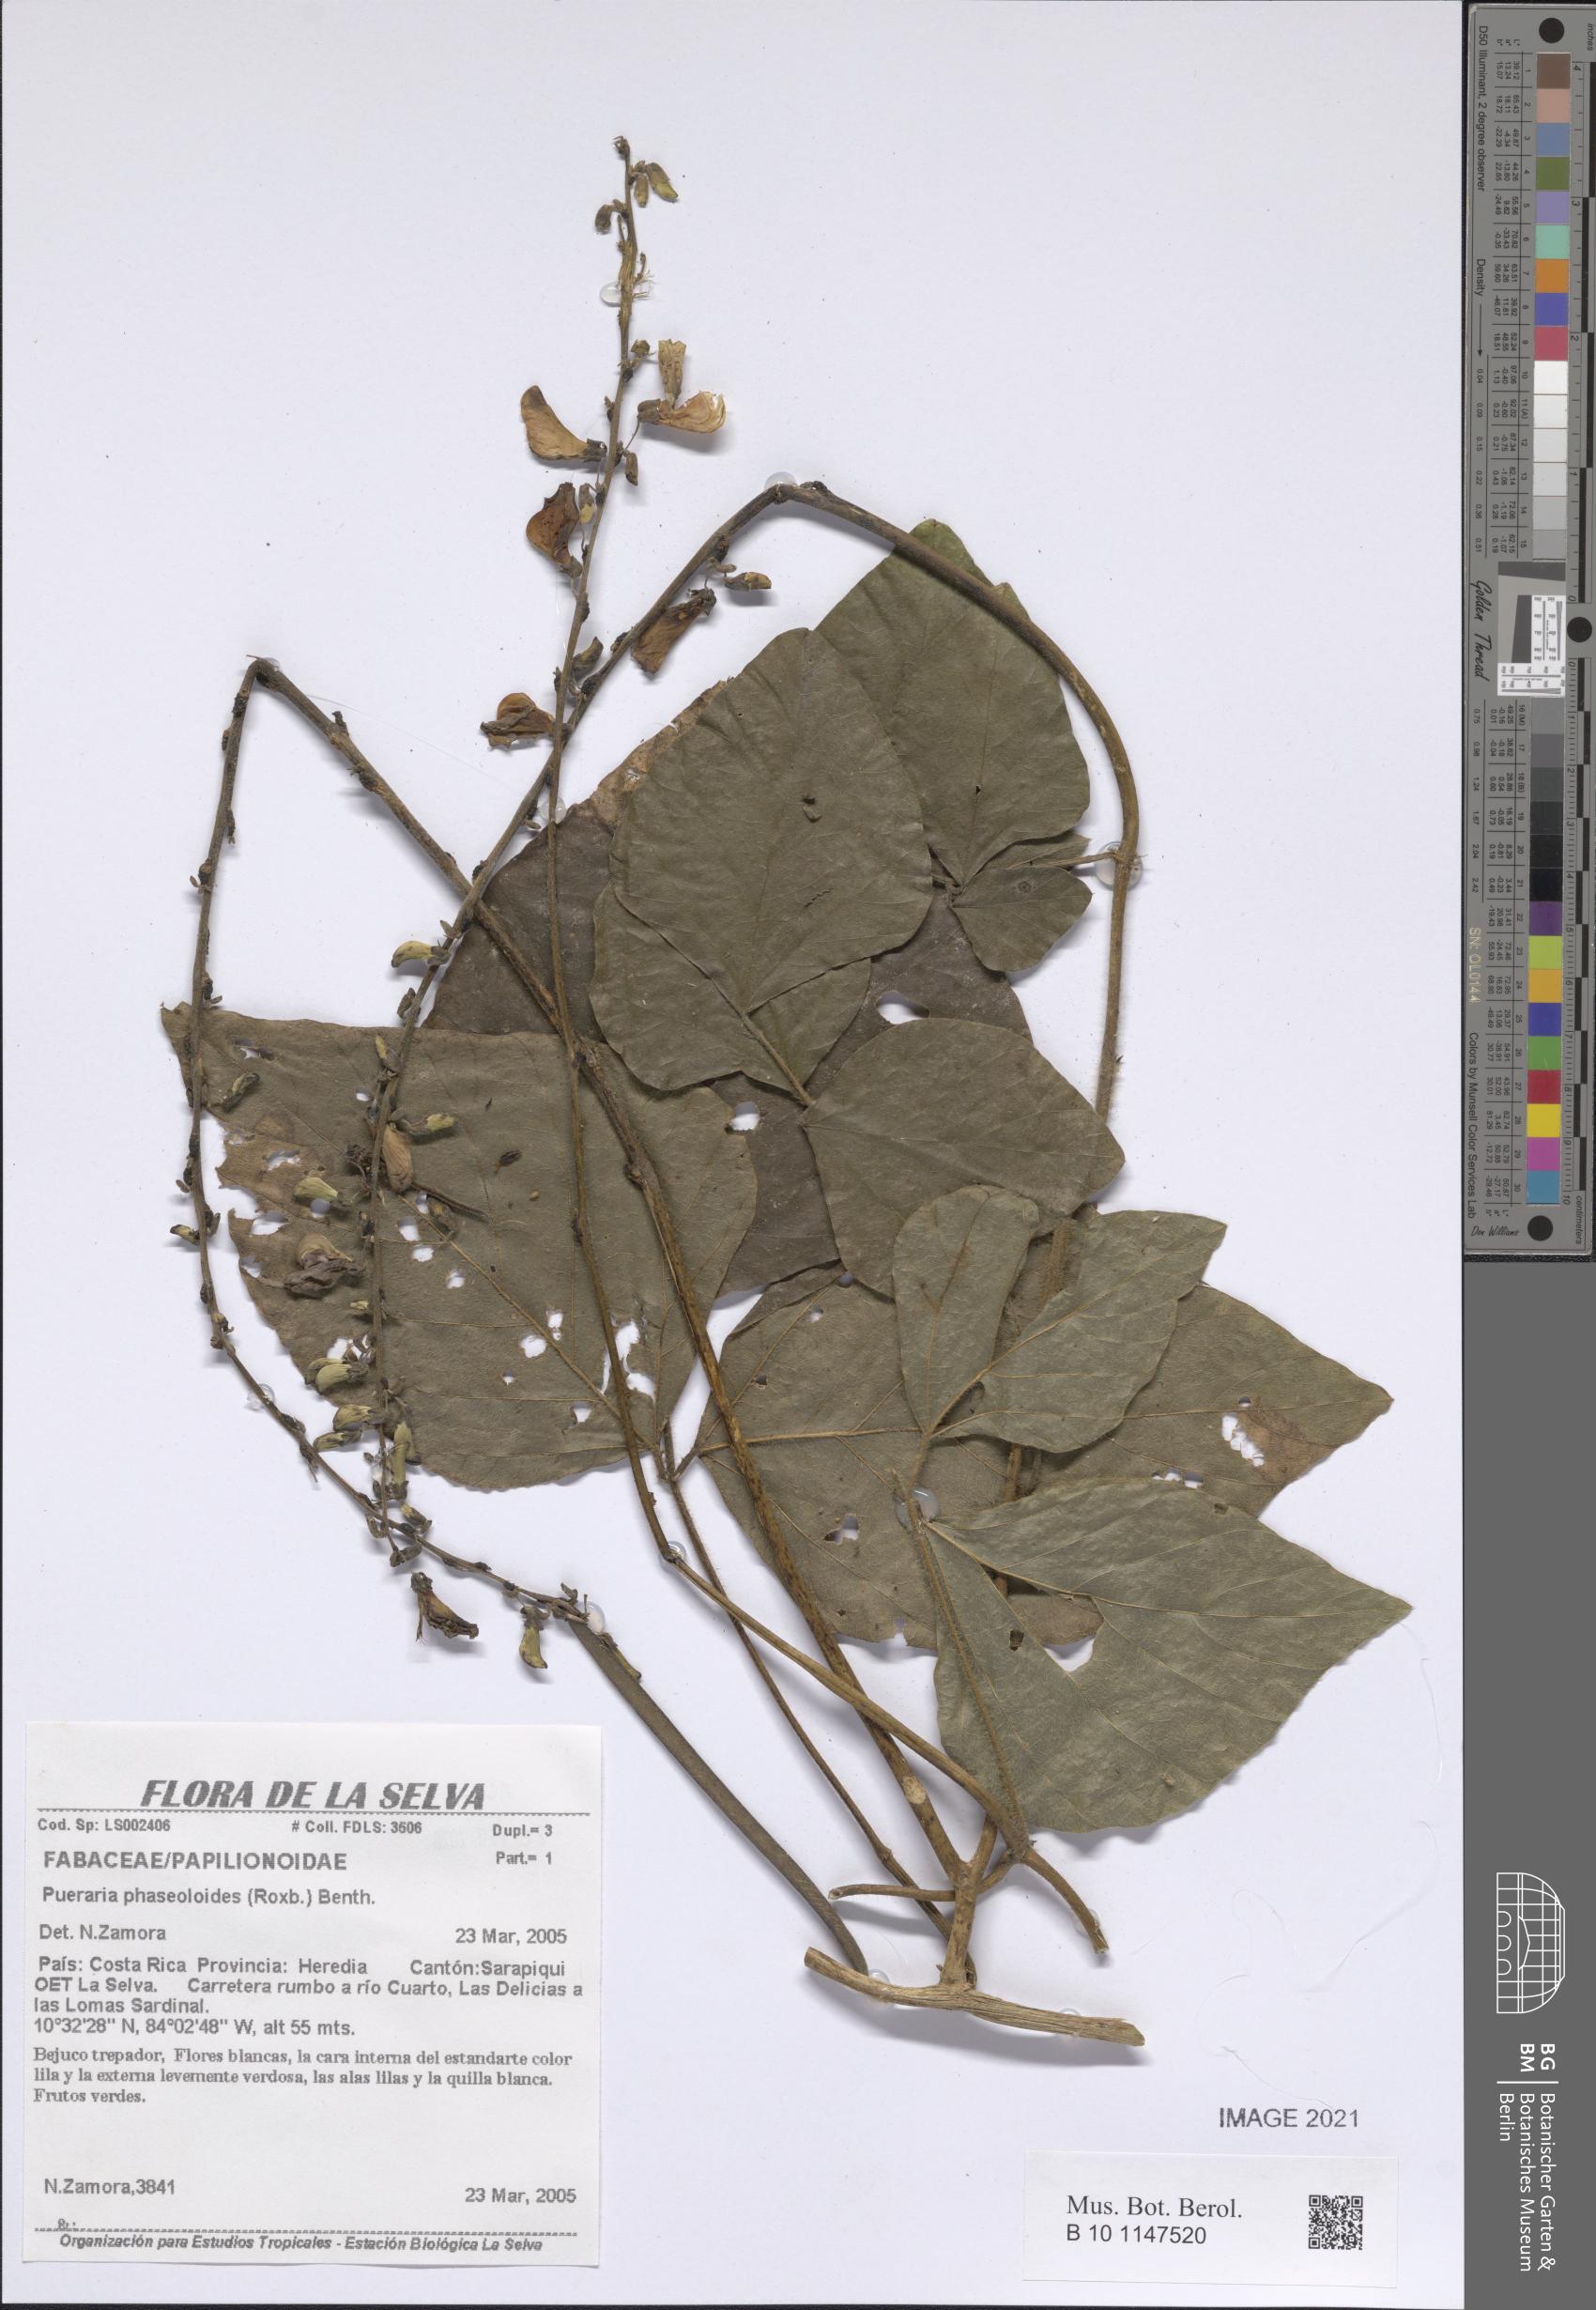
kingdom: Plantae
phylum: Tracheophyta
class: Magnoliopsida
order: Fabales
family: Fabaceae
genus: Neustanthus
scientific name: Neustanthus phaseoloides
